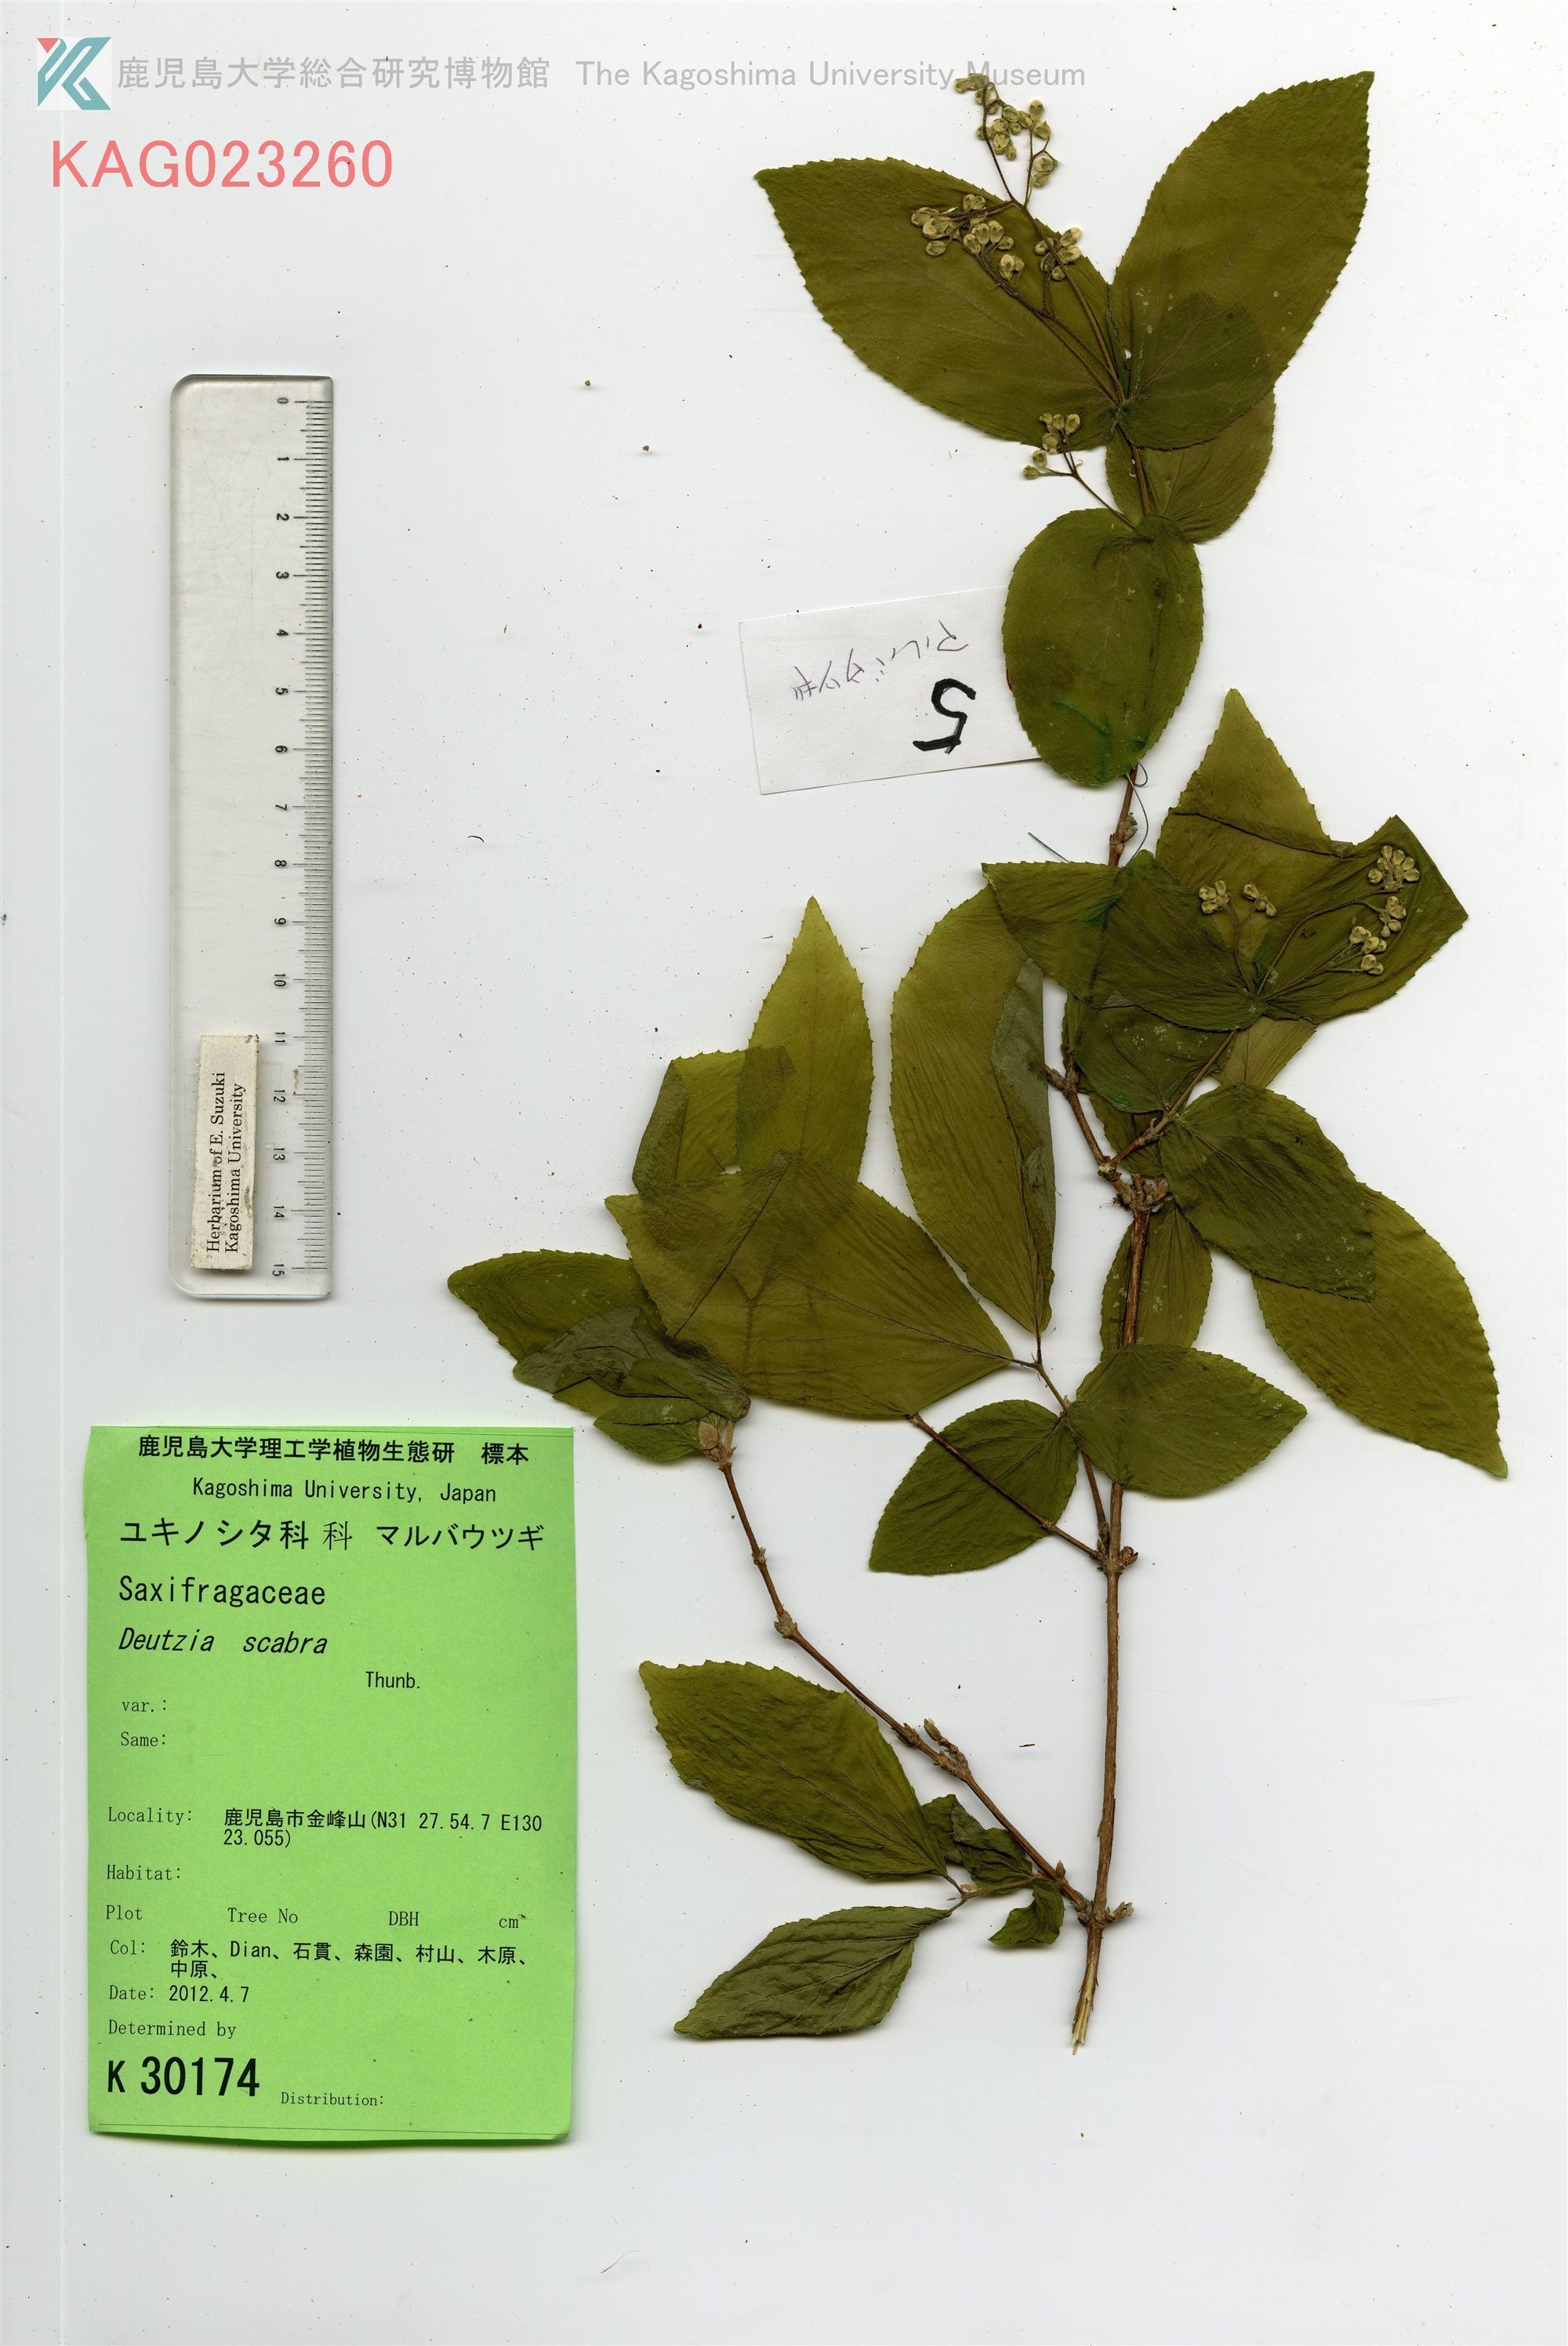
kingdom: Plantae
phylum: Tracheophyta
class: Magnoliopsida
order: Cornales
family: Hydrangeaceae
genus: Deutzia
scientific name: Deutzia scabra
